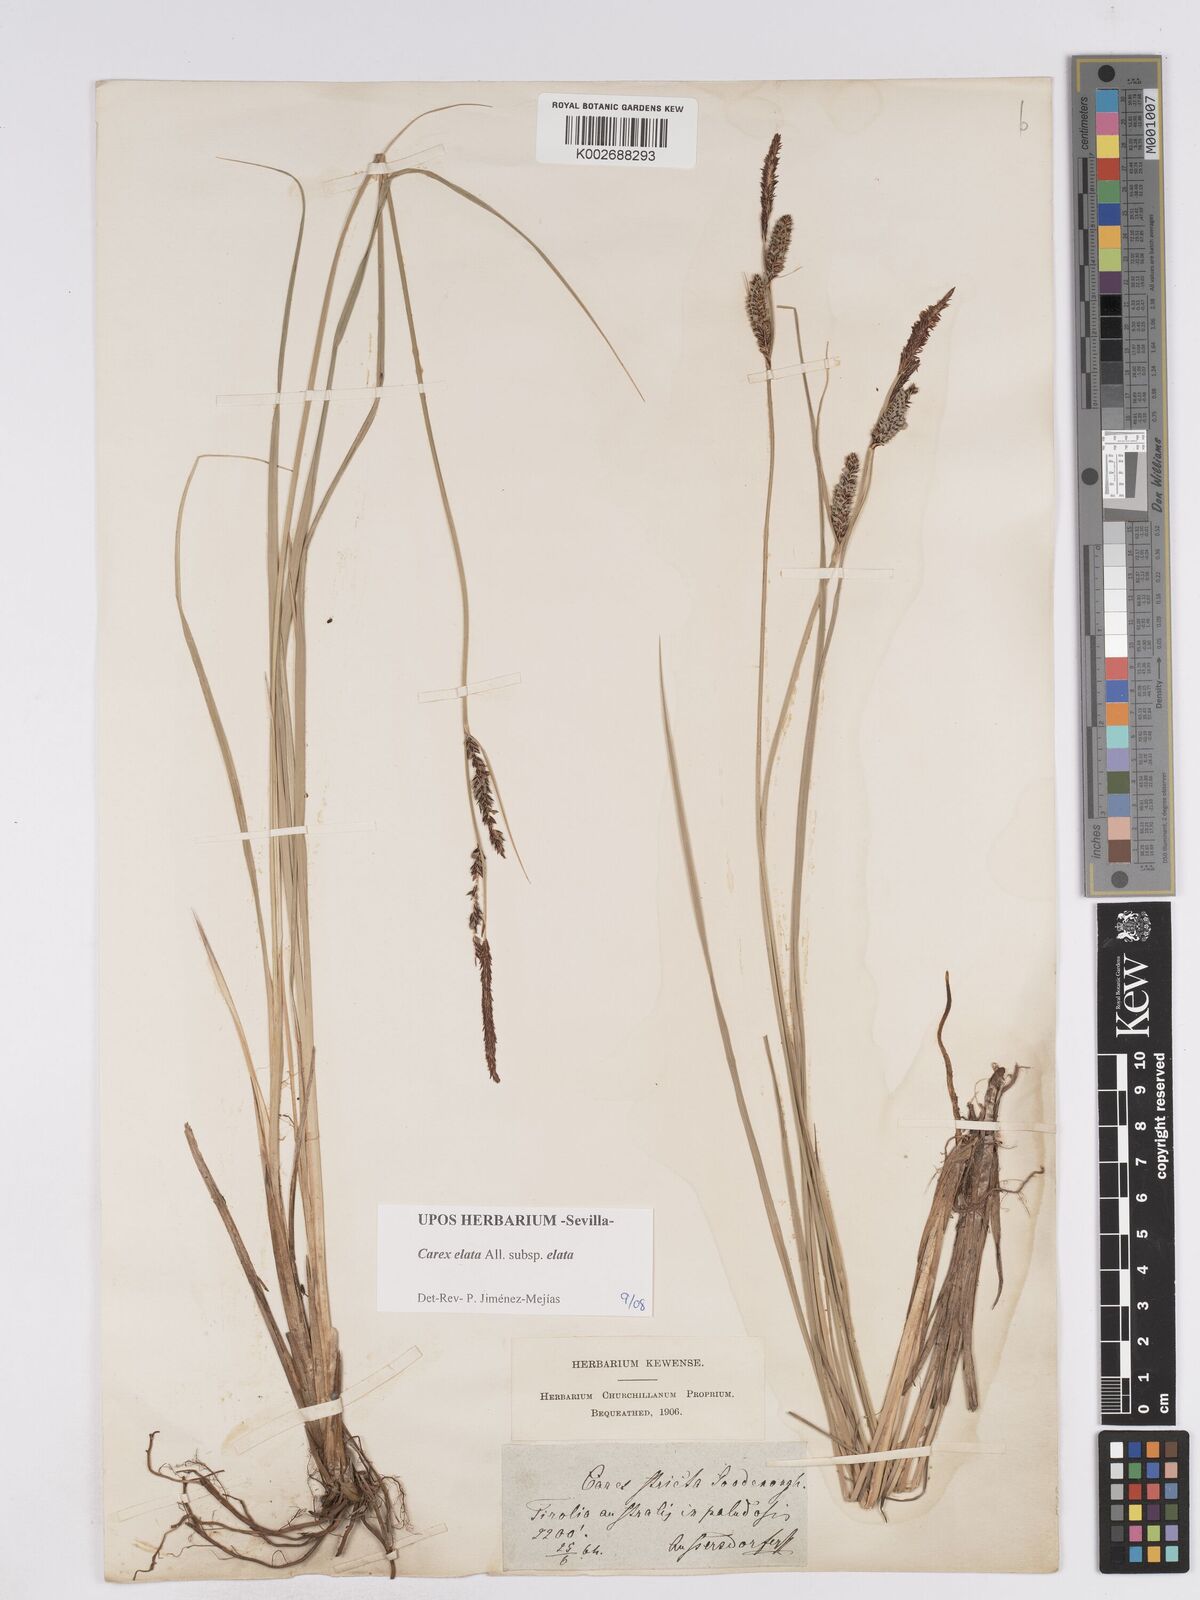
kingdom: Plantae
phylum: Tracheophyta
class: Liliopsida
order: Poales
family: Cyperaceae
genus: Carex
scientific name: Carex elata
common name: Tufted sedge
